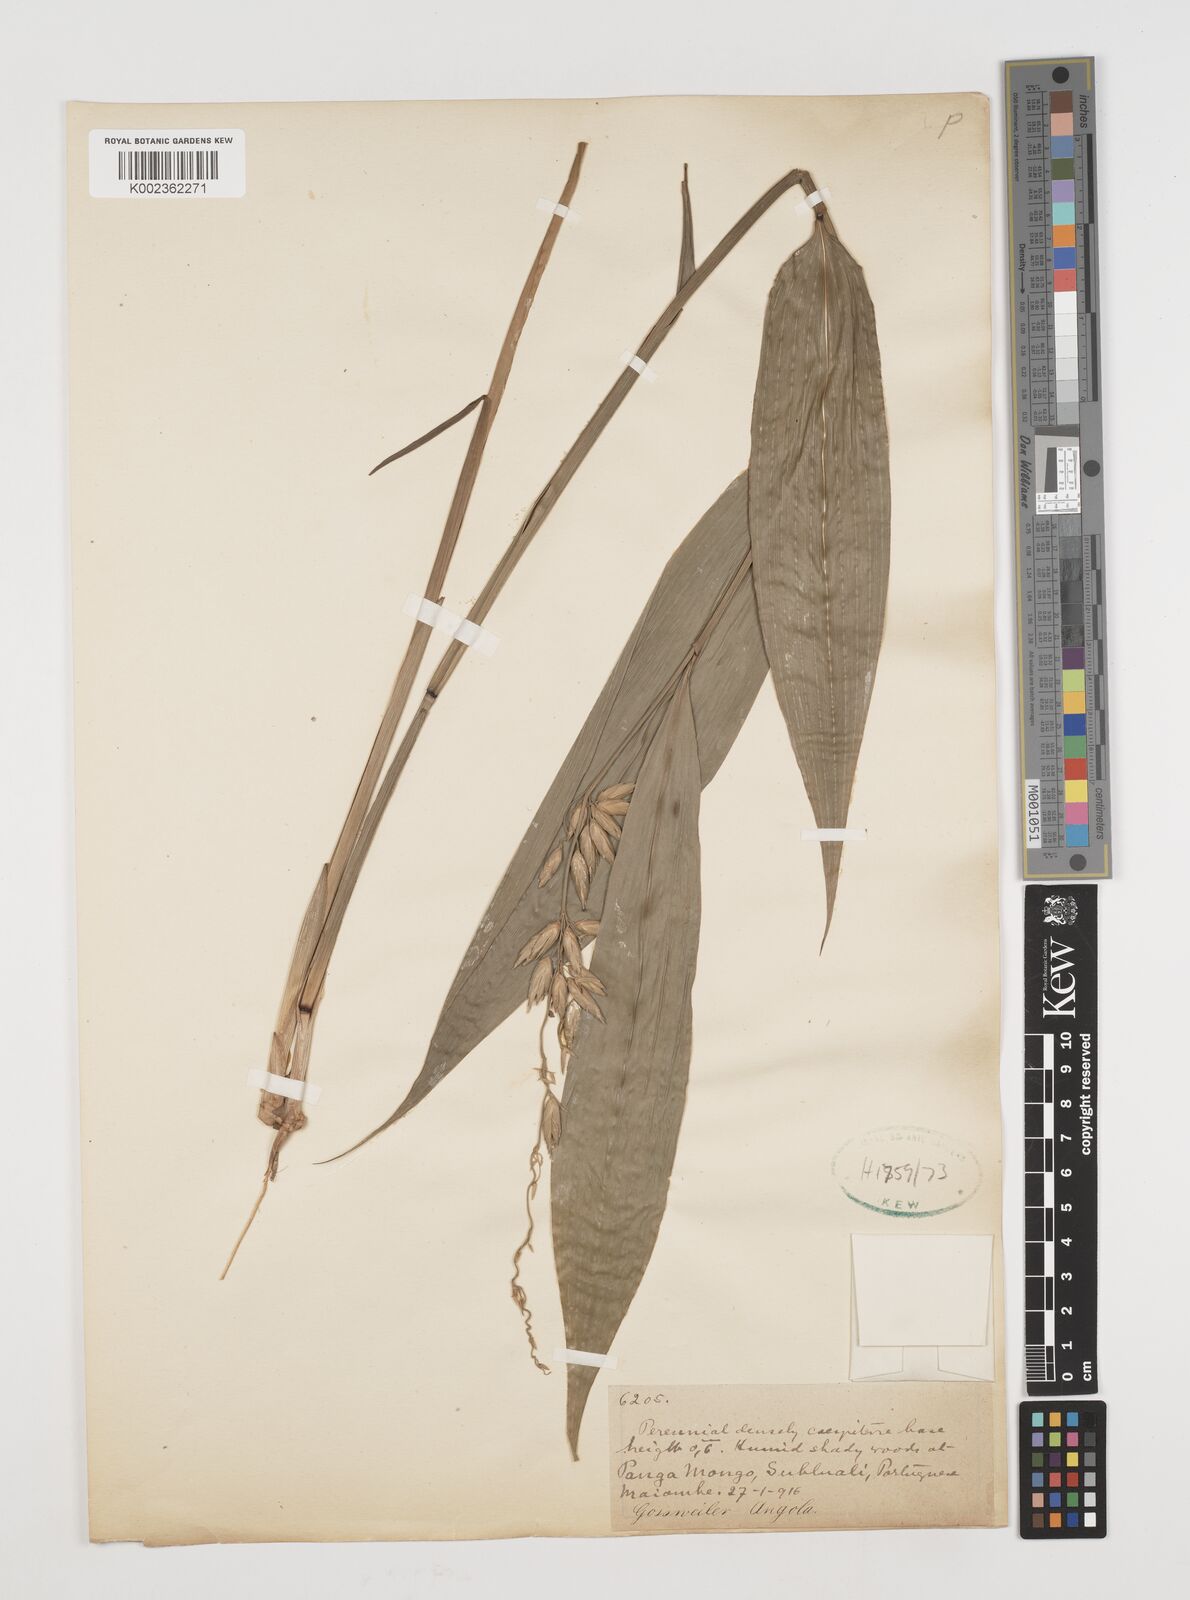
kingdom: Plantae
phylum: Tracheophyta
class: Liliopsida
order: Poales
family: Poaceae
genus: Puelia
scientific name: Puelia olyriformis
